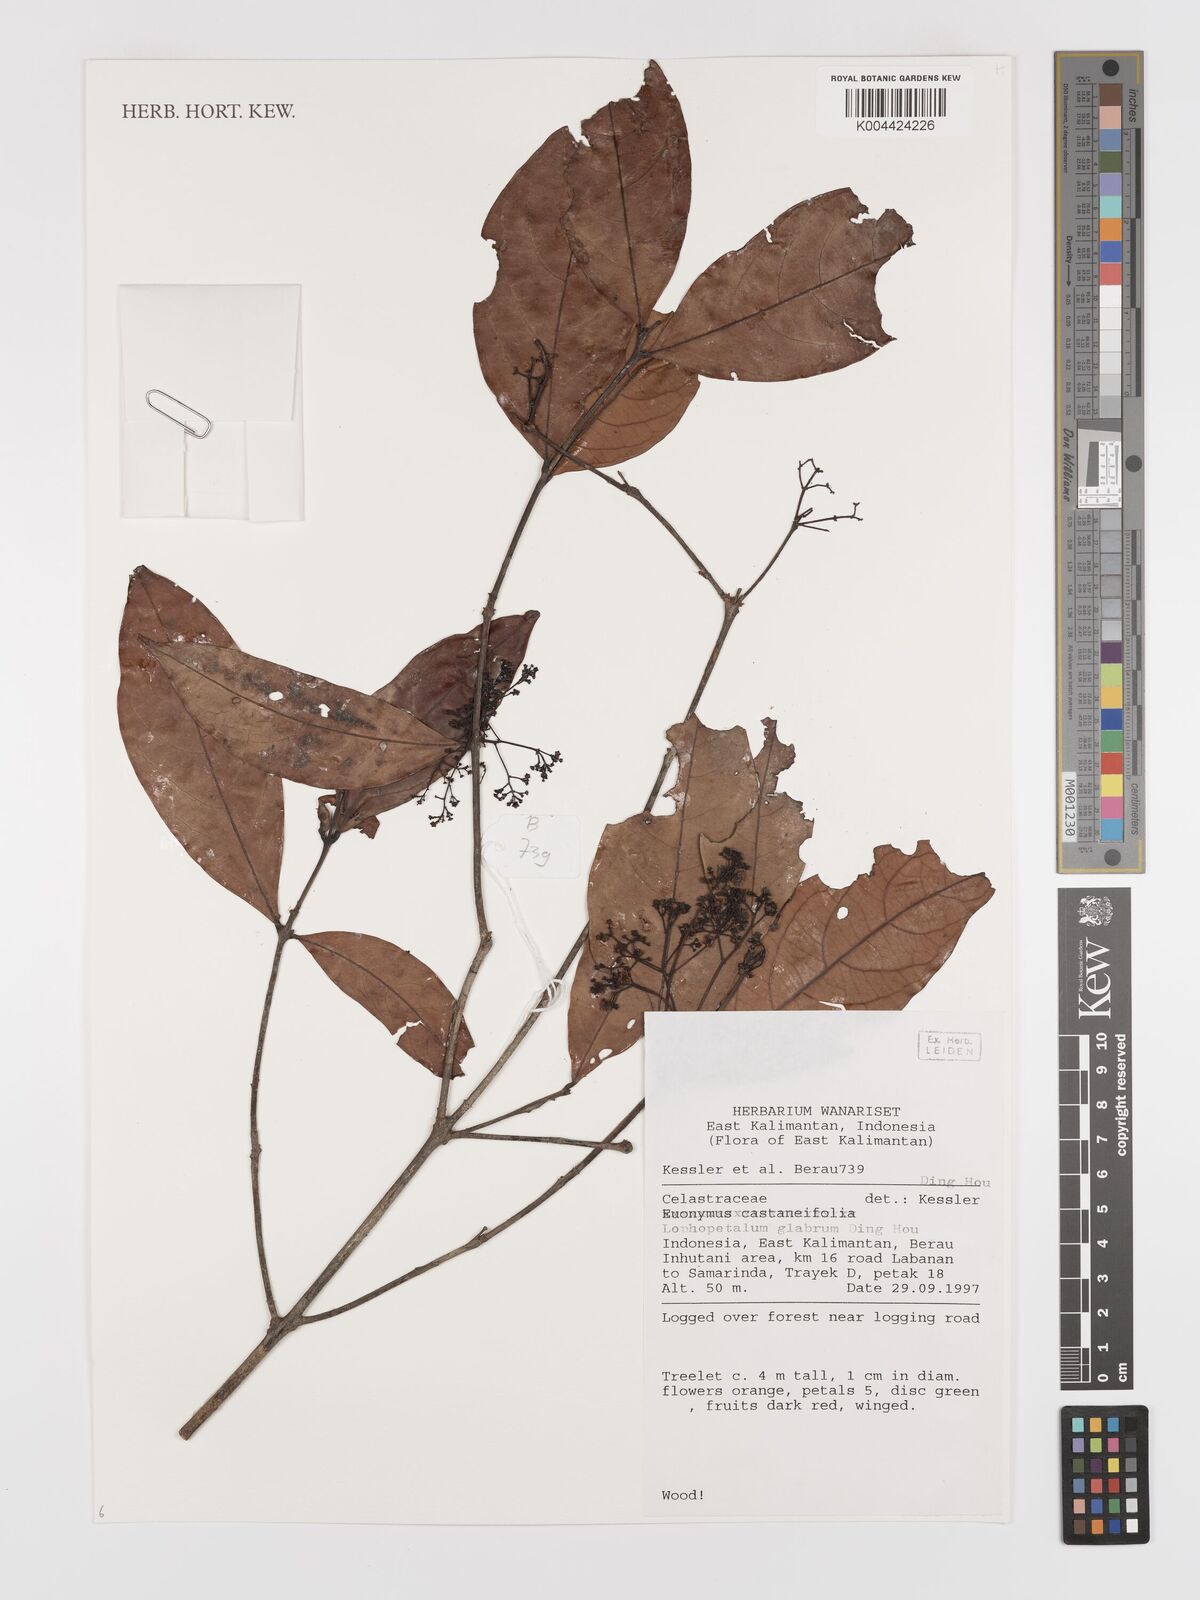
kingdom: Plantae
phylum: Tracheophyta
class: Magnoliopsida
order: Celastrales
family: Celastraceae
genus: Lophopetalum
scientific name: Lophopetalum glabrum
